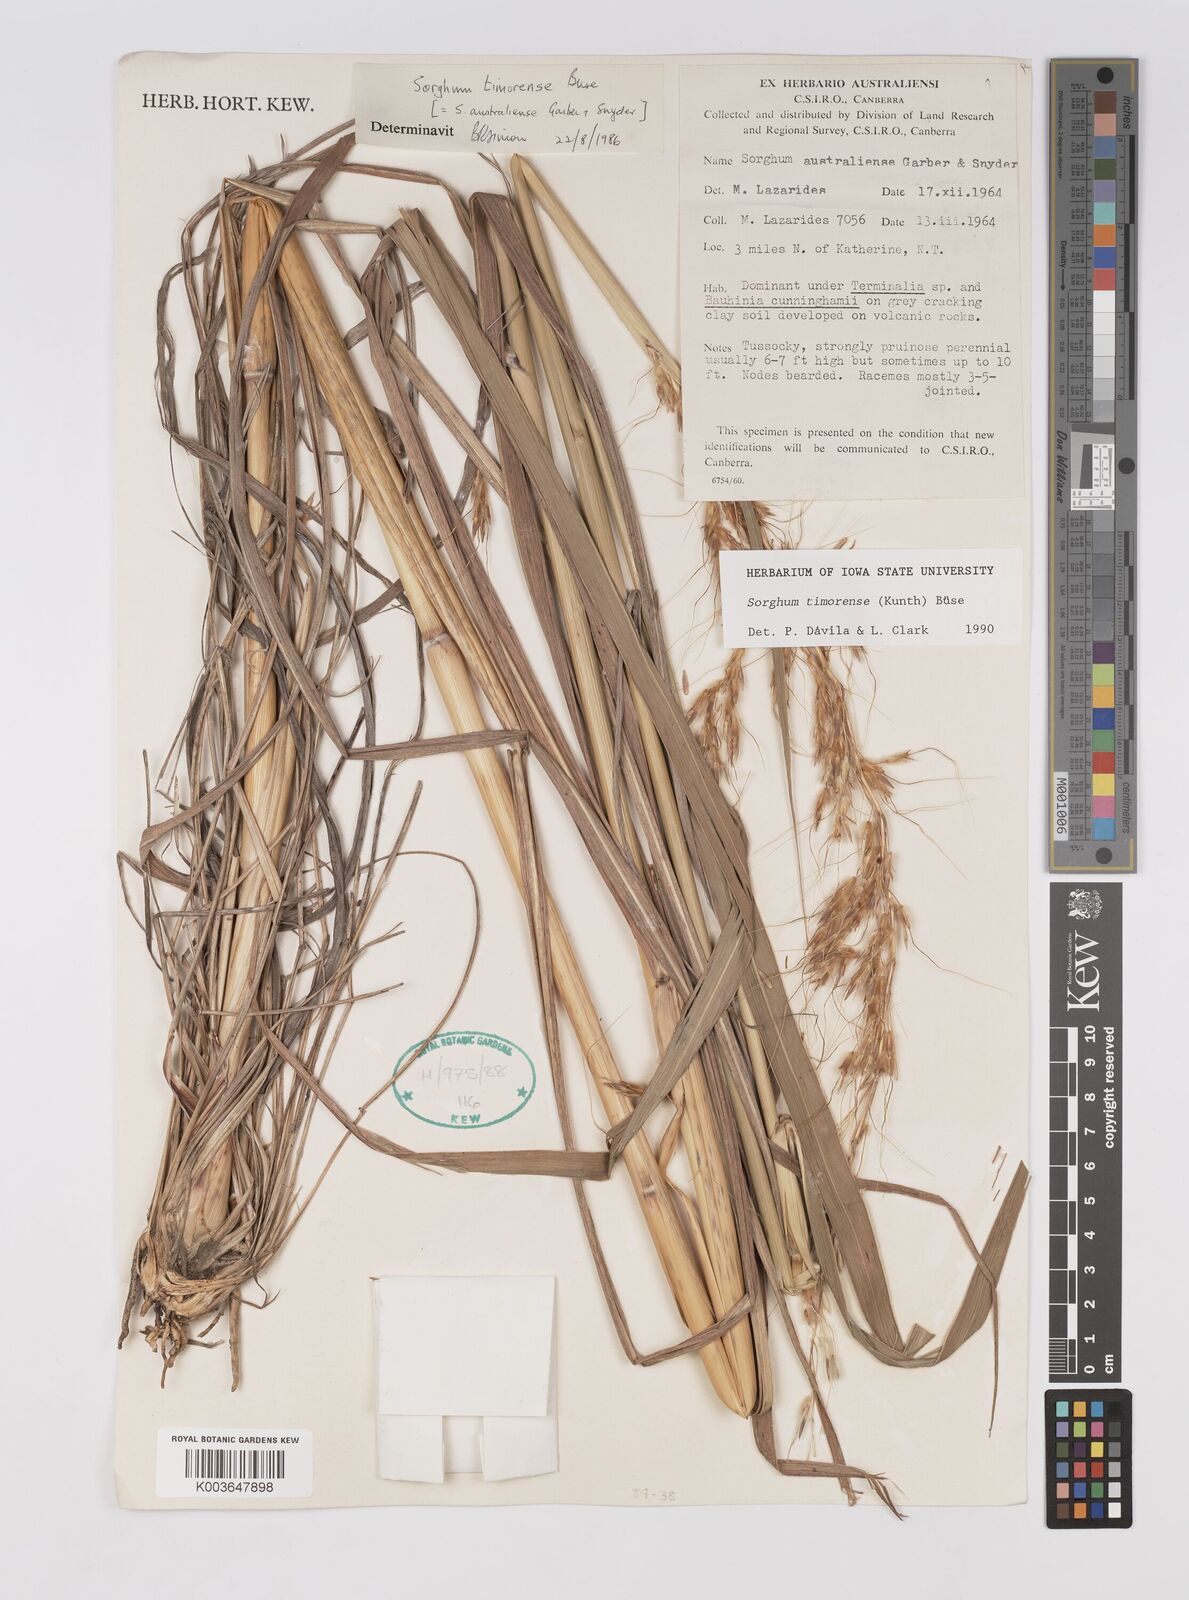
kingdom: Plantae
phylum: Tracheophyta
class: Liliopsida
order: Poales
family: Poaceae
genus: Sarga
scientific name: Sarga timorensis
